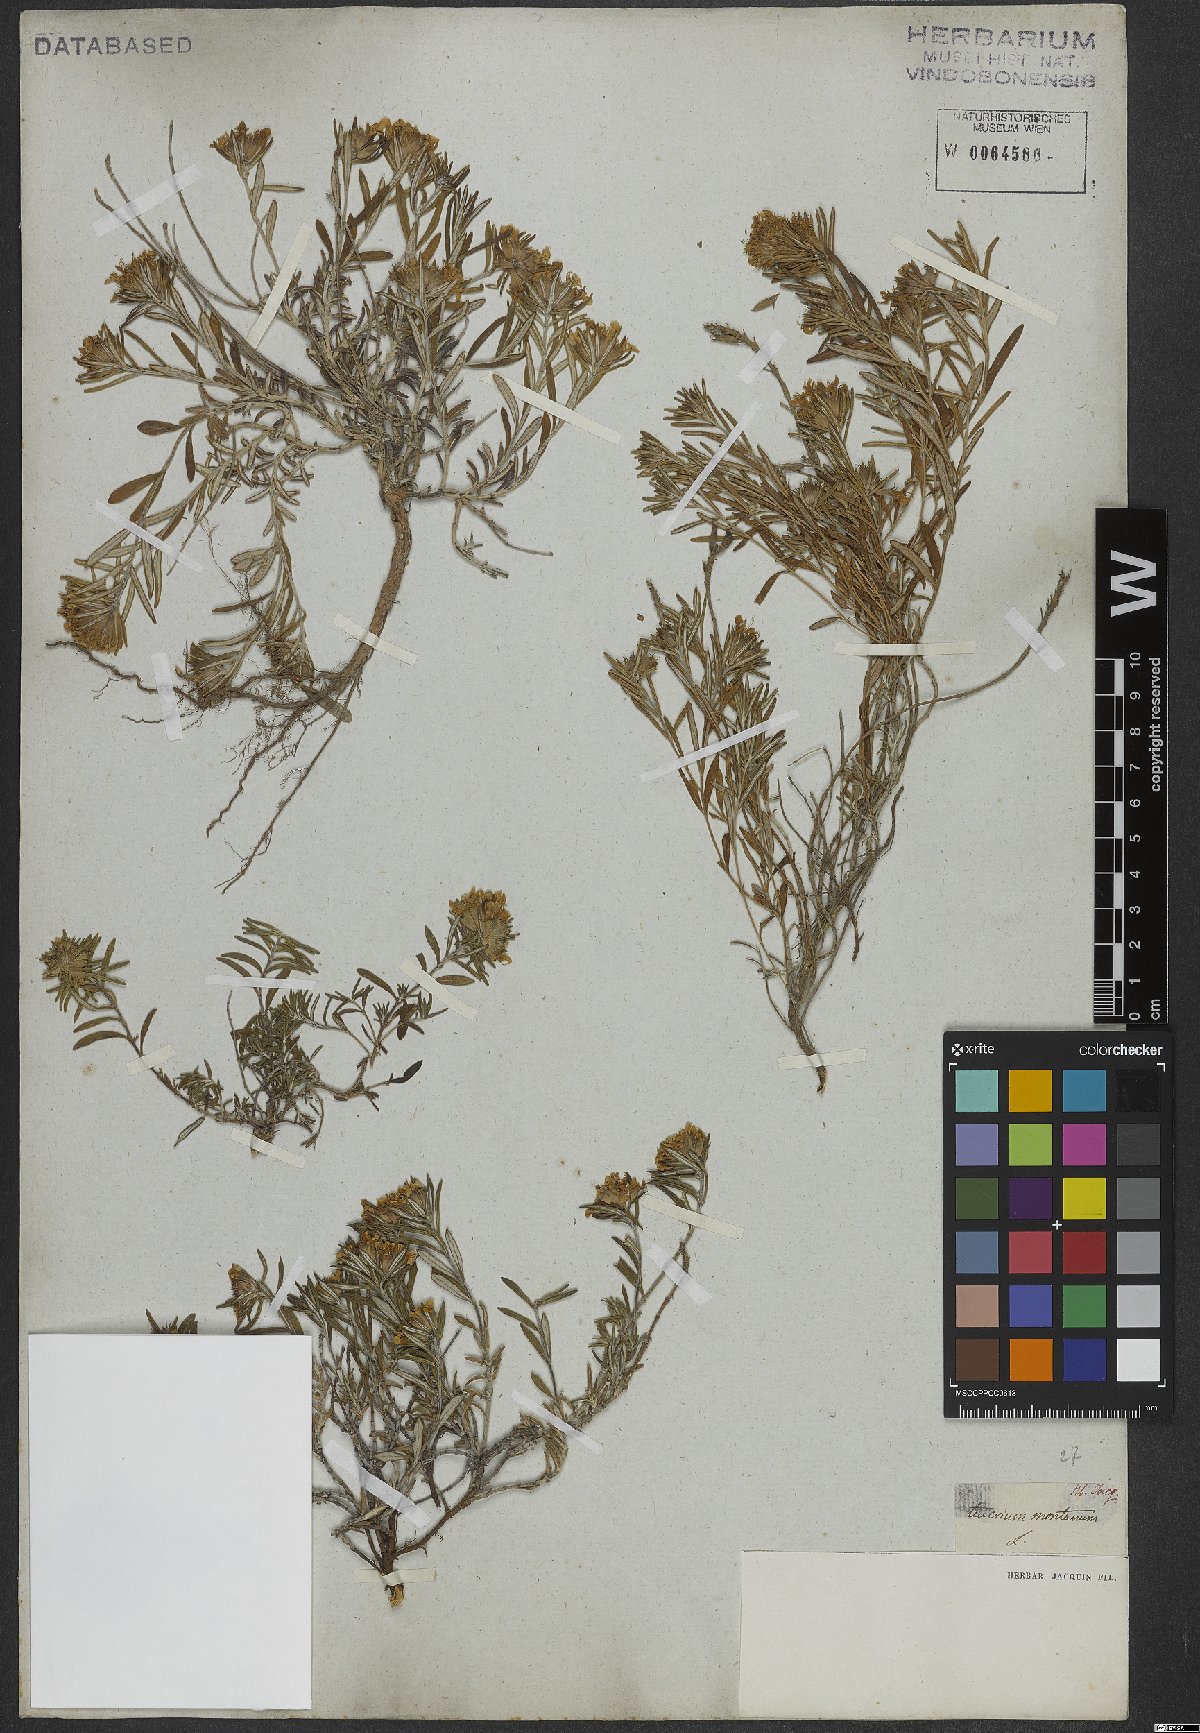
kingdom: Plantae
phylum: Tracheophyta
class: Magnoliopsida
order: Lamiales
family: Lamiaceae
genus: Teucrium
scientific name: Teucrium montanum
